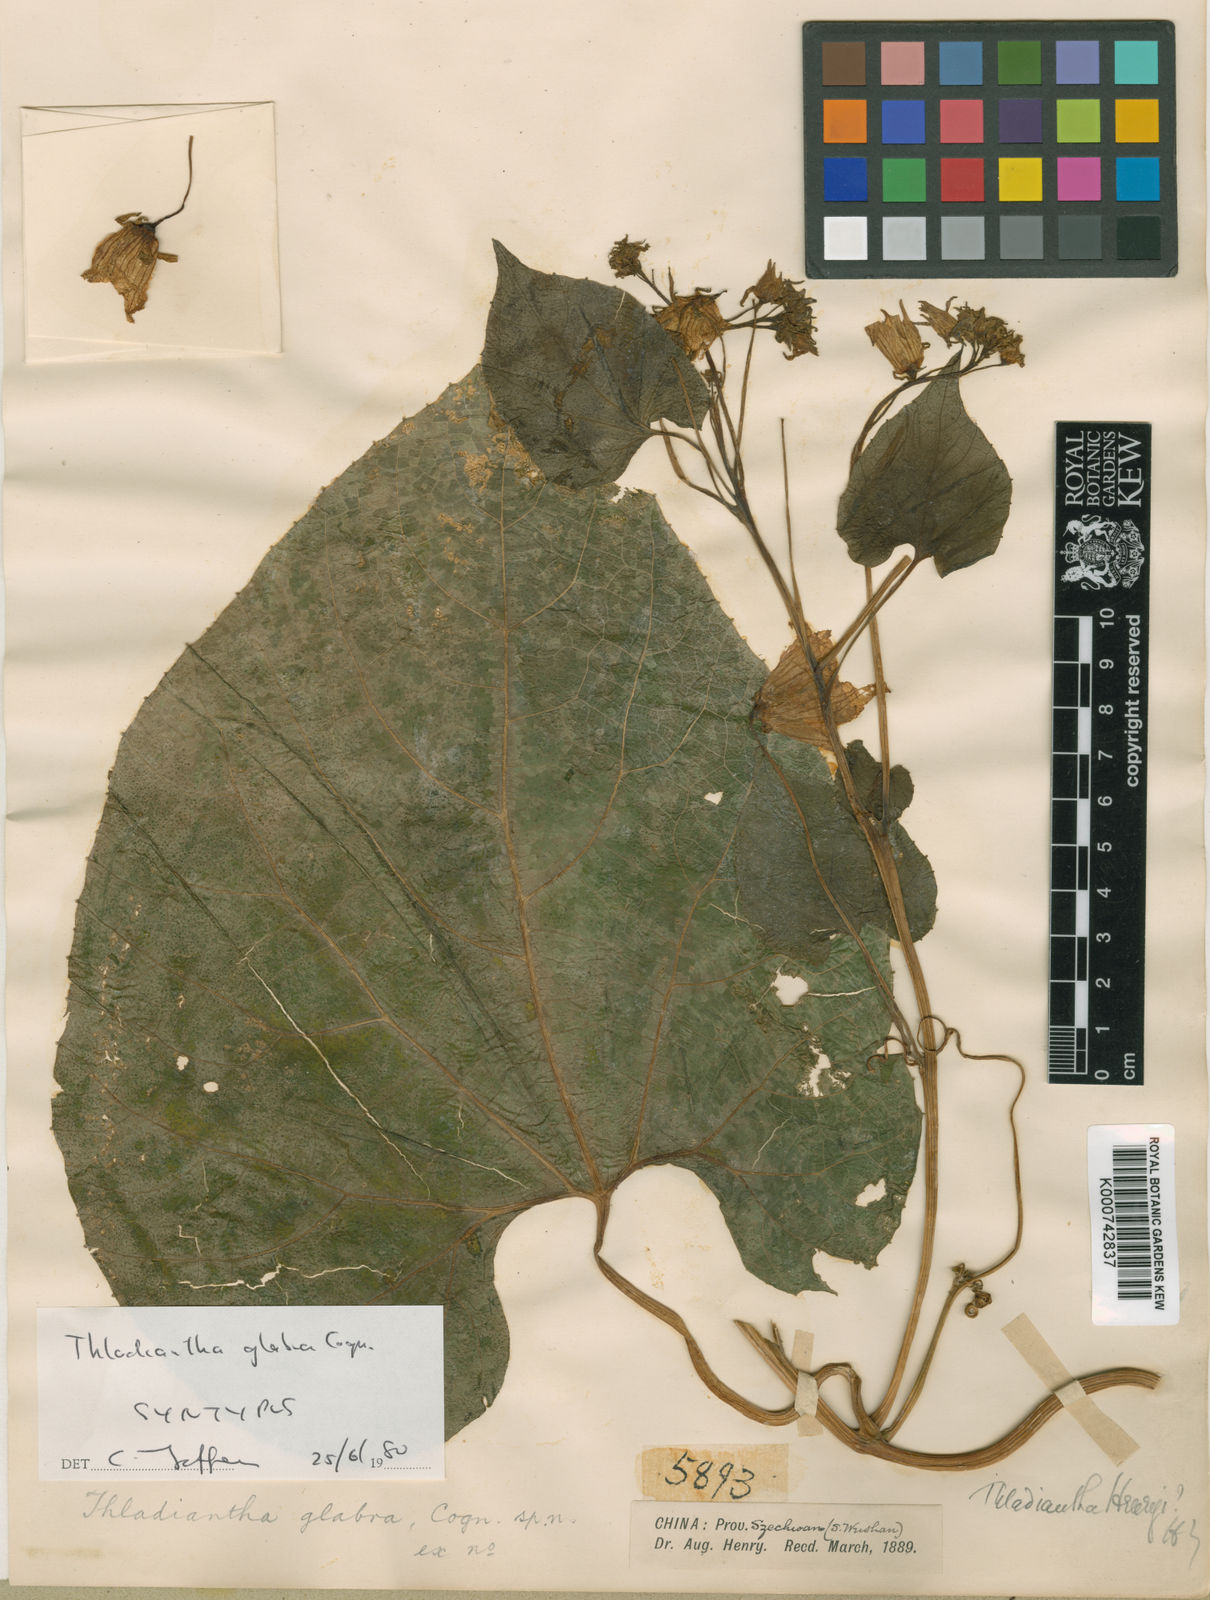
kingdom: Plantae
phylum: Tracheophyta
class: Magnoliopsida
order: Cucurbitales
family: Cucurbitaceae
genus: Thladiantha
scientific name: Thladiantha
